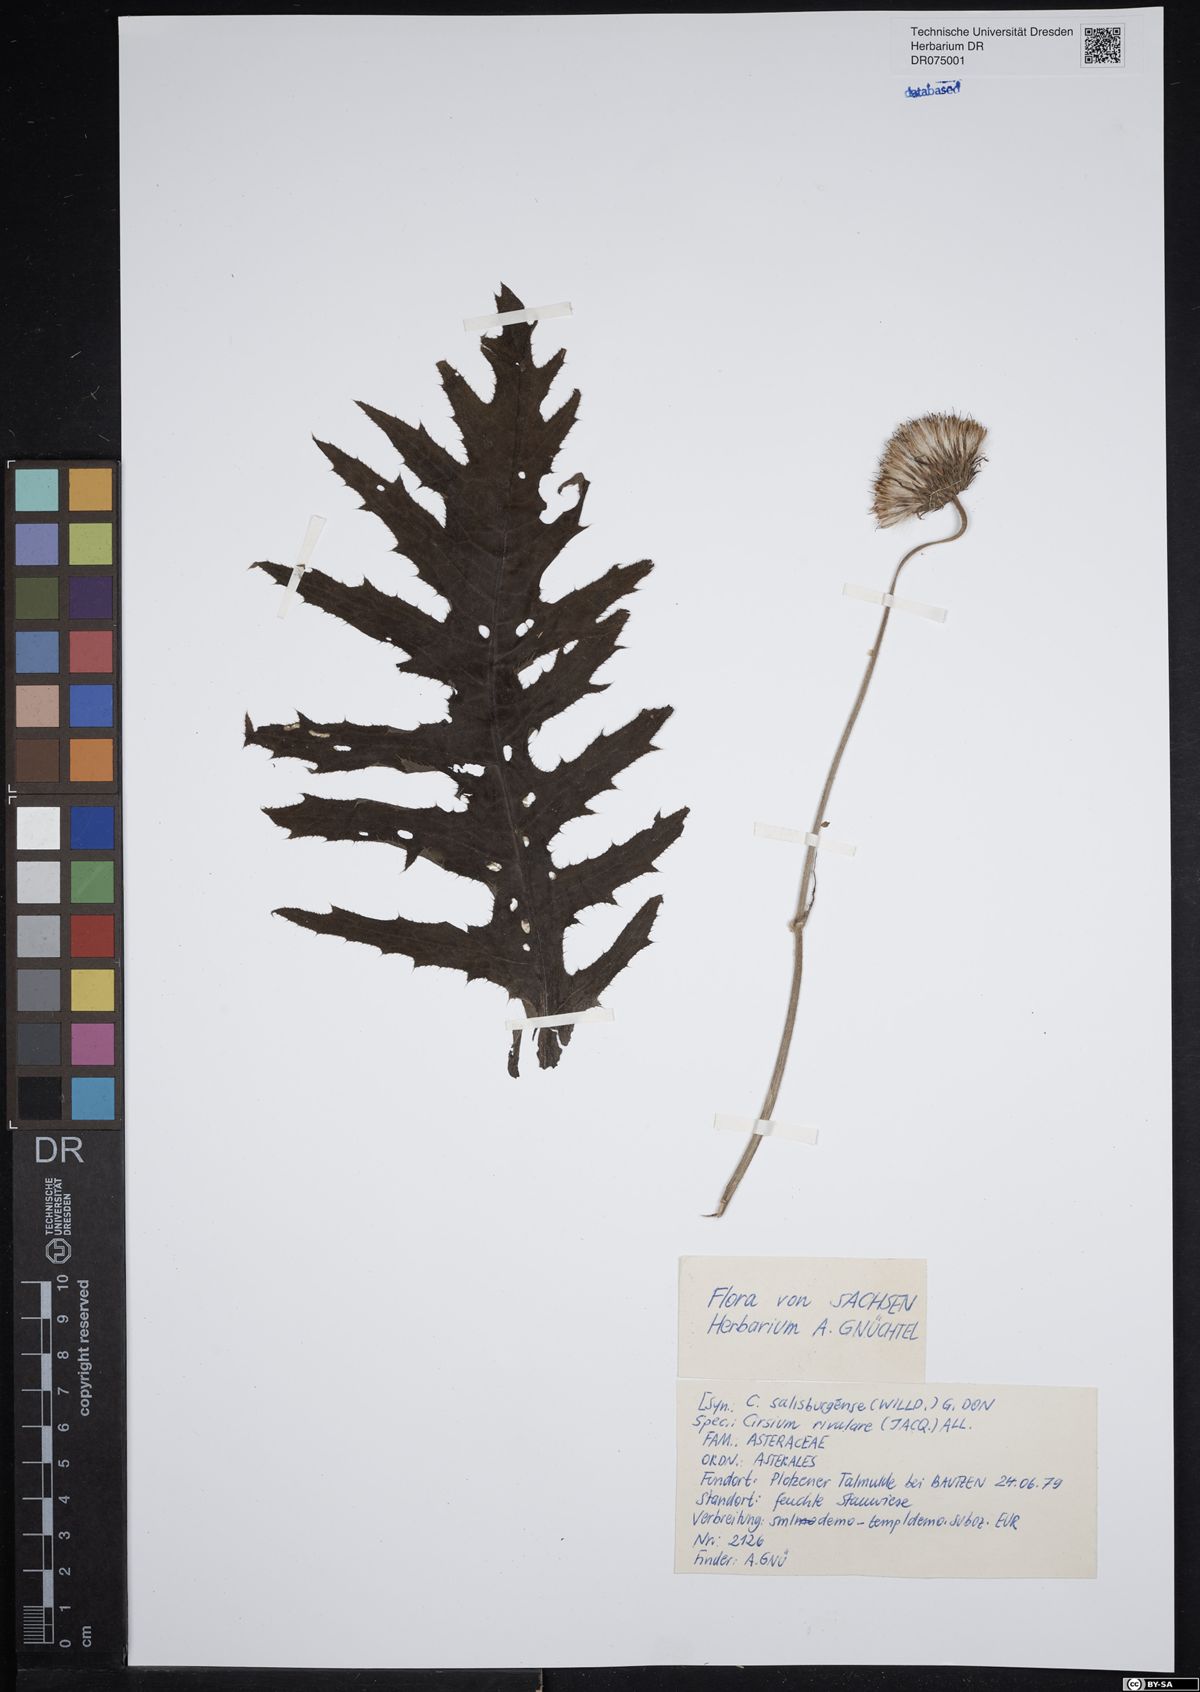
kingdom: Plantae
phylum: Tracheophyta
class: Magnoliopsida
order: Asterales
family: Asteraceae
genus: Cirsium
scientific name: Cirsium rivulare
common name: Brook thistle
